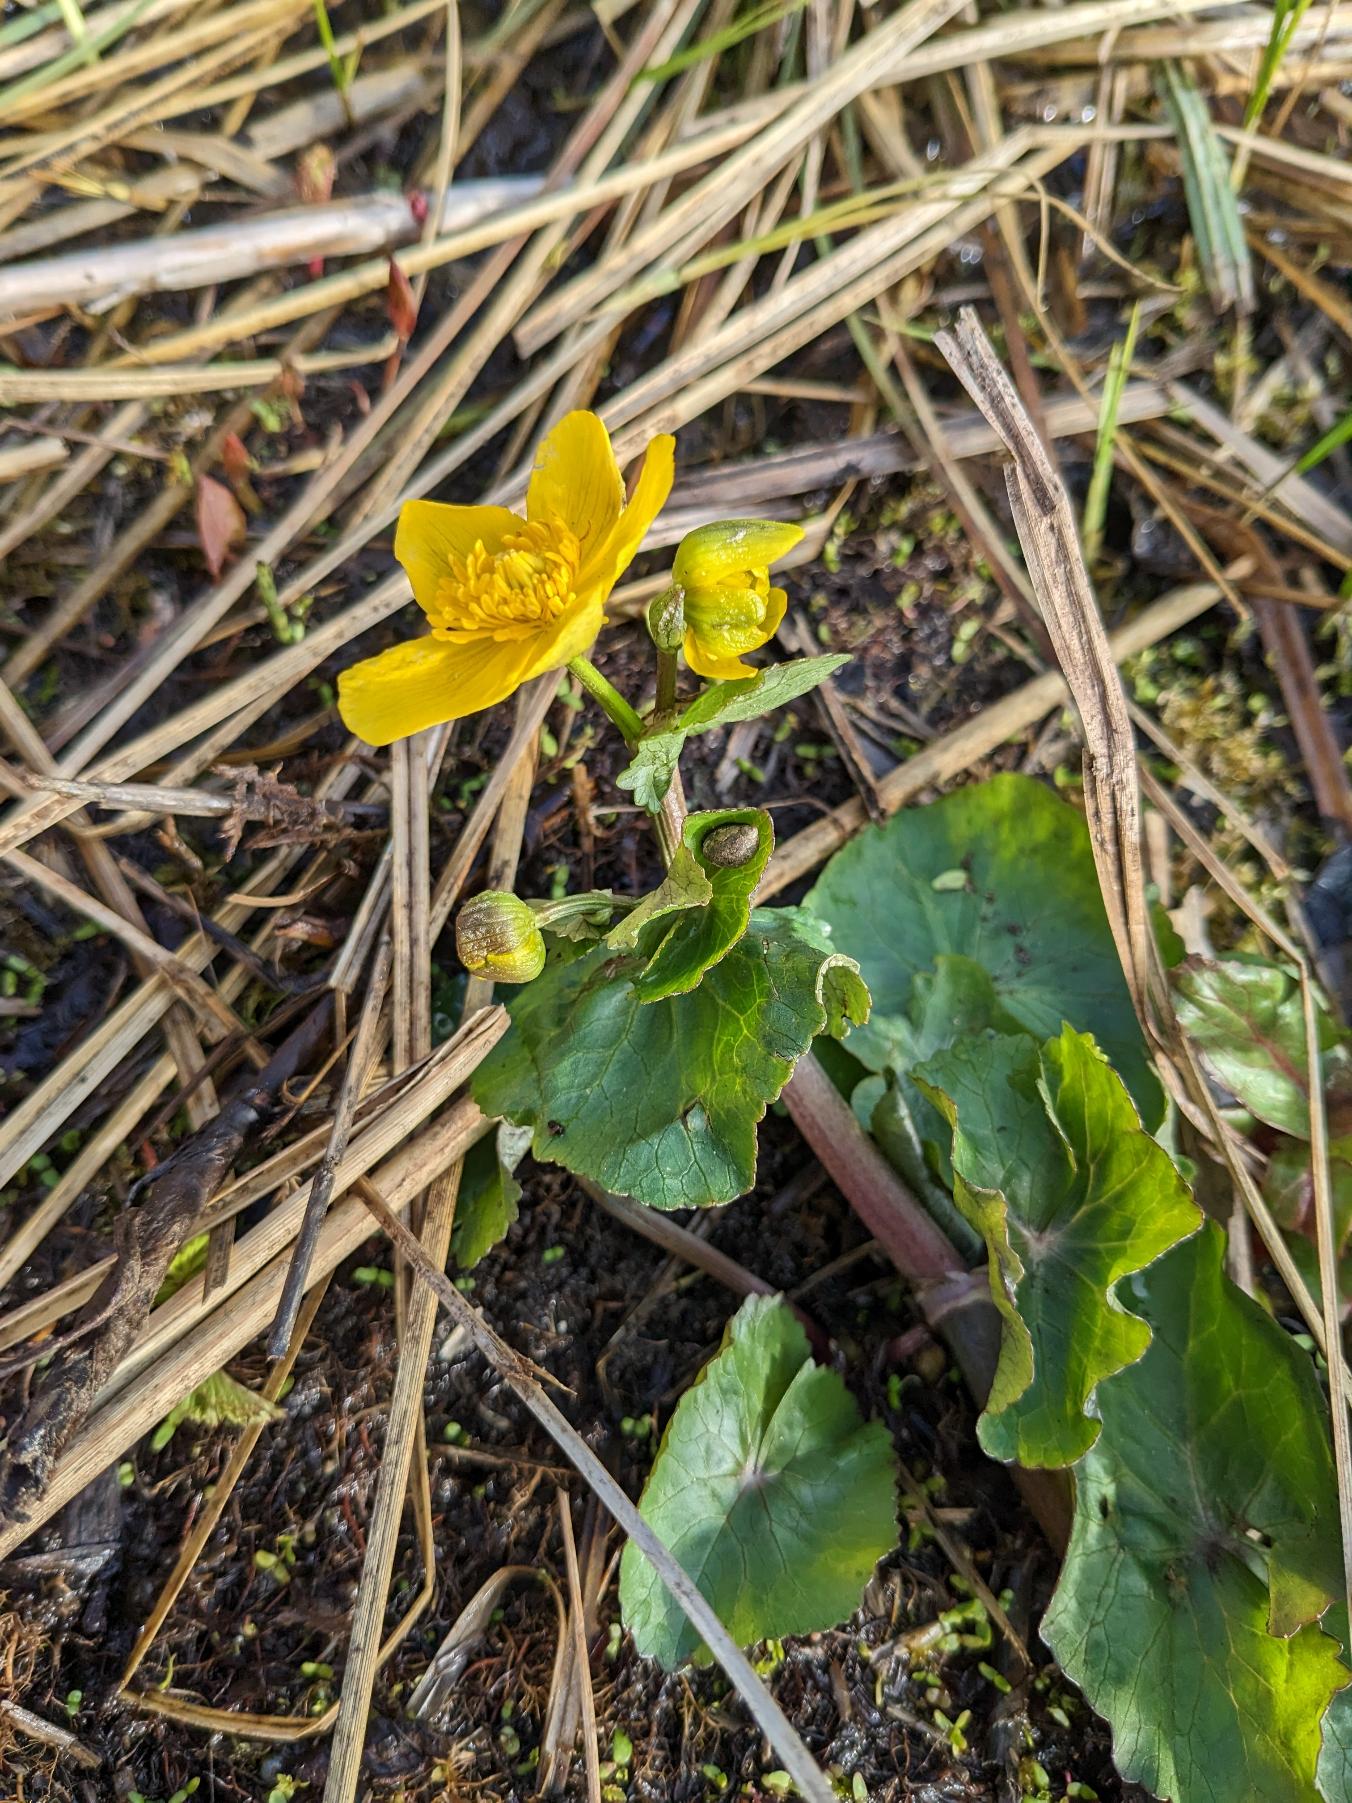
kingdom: Plantae
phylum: Tracheophyta
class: Magnoliopsida
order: Ranunculales
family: Ranunculaceae
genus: Caltha
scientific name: Caltha palustris
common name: Eng-kabbeleje
